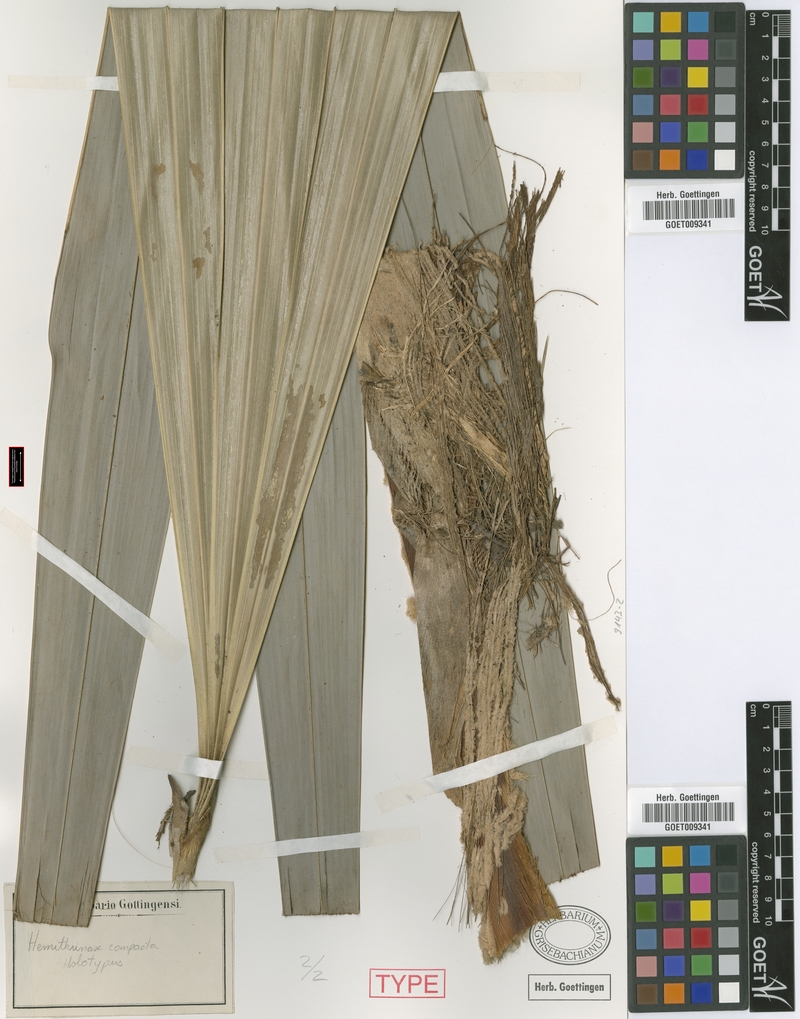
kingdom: Plantae
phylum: Tracheophyta
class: Liliopsida
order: Arecales
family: Arecaceae
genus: Hemithrinax
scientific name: Hemithrinax compacta
